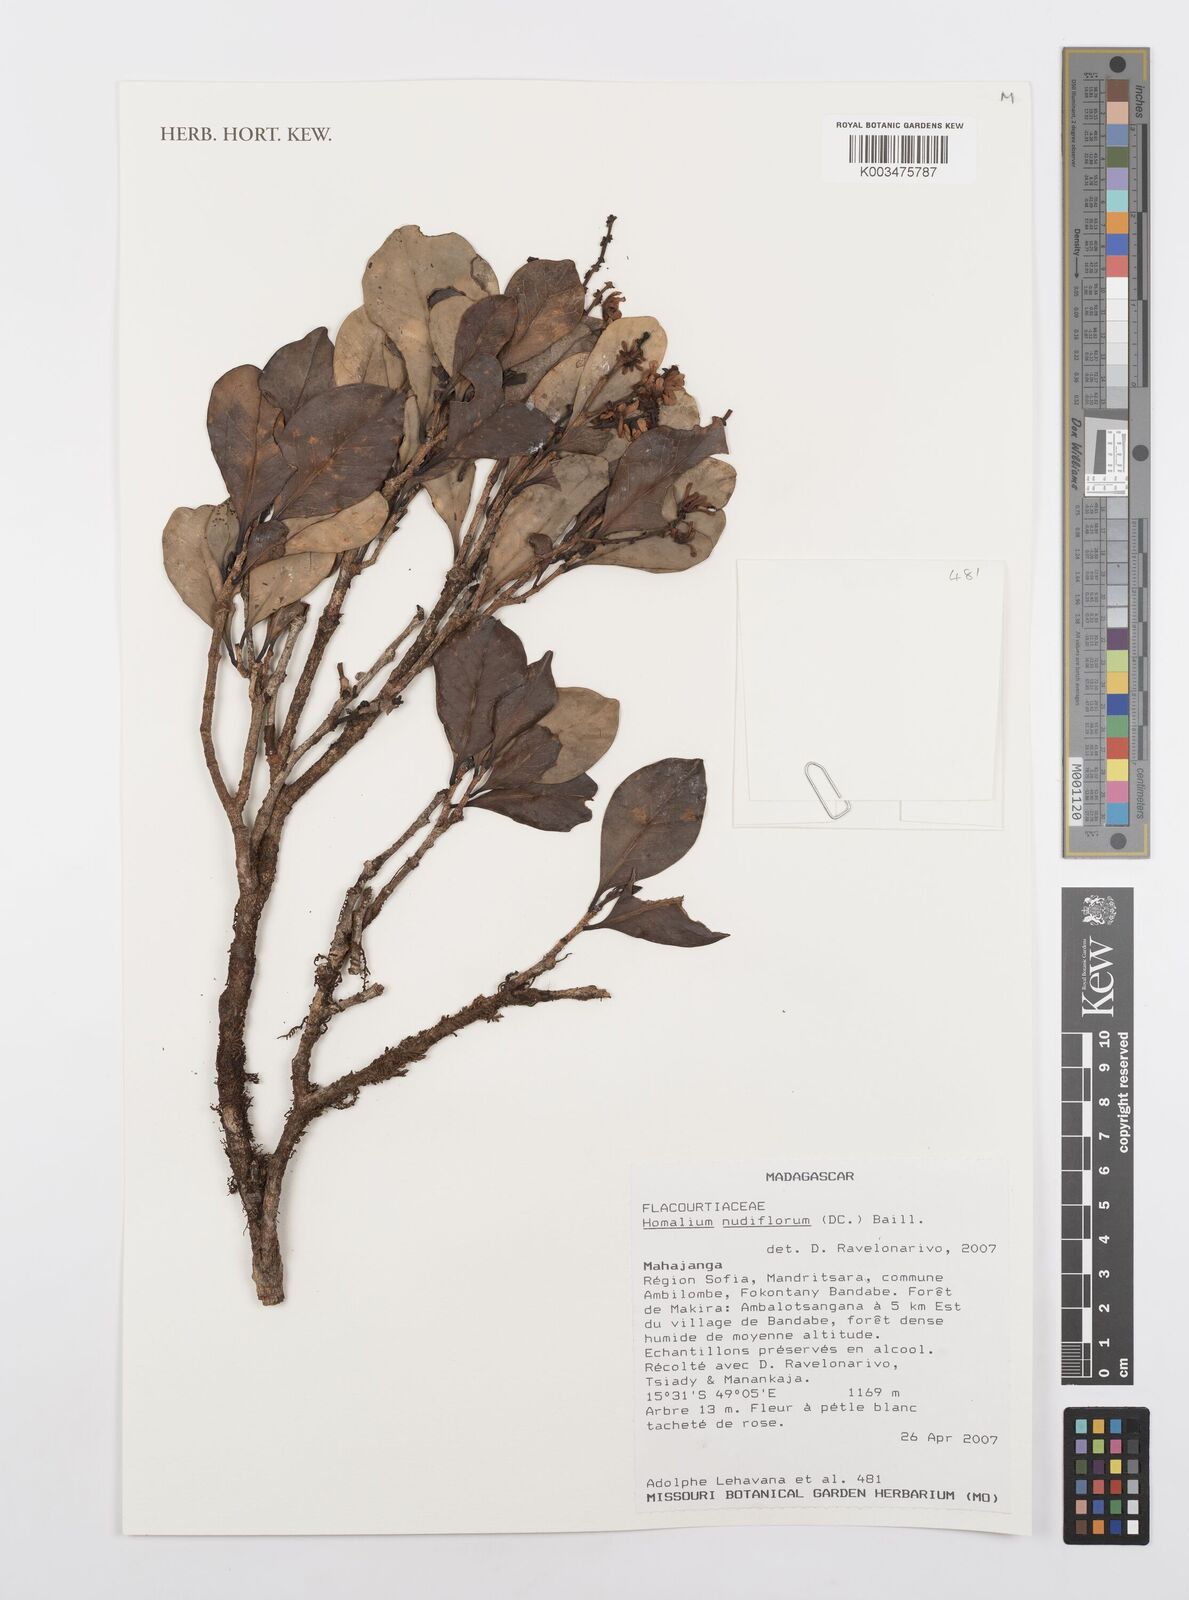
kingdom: Plantae
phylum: Tracheophyta
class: Magnoliopsida
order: Malpighiales
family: Salicaceae
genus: Homalium
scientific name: Homalium nudiflorum
